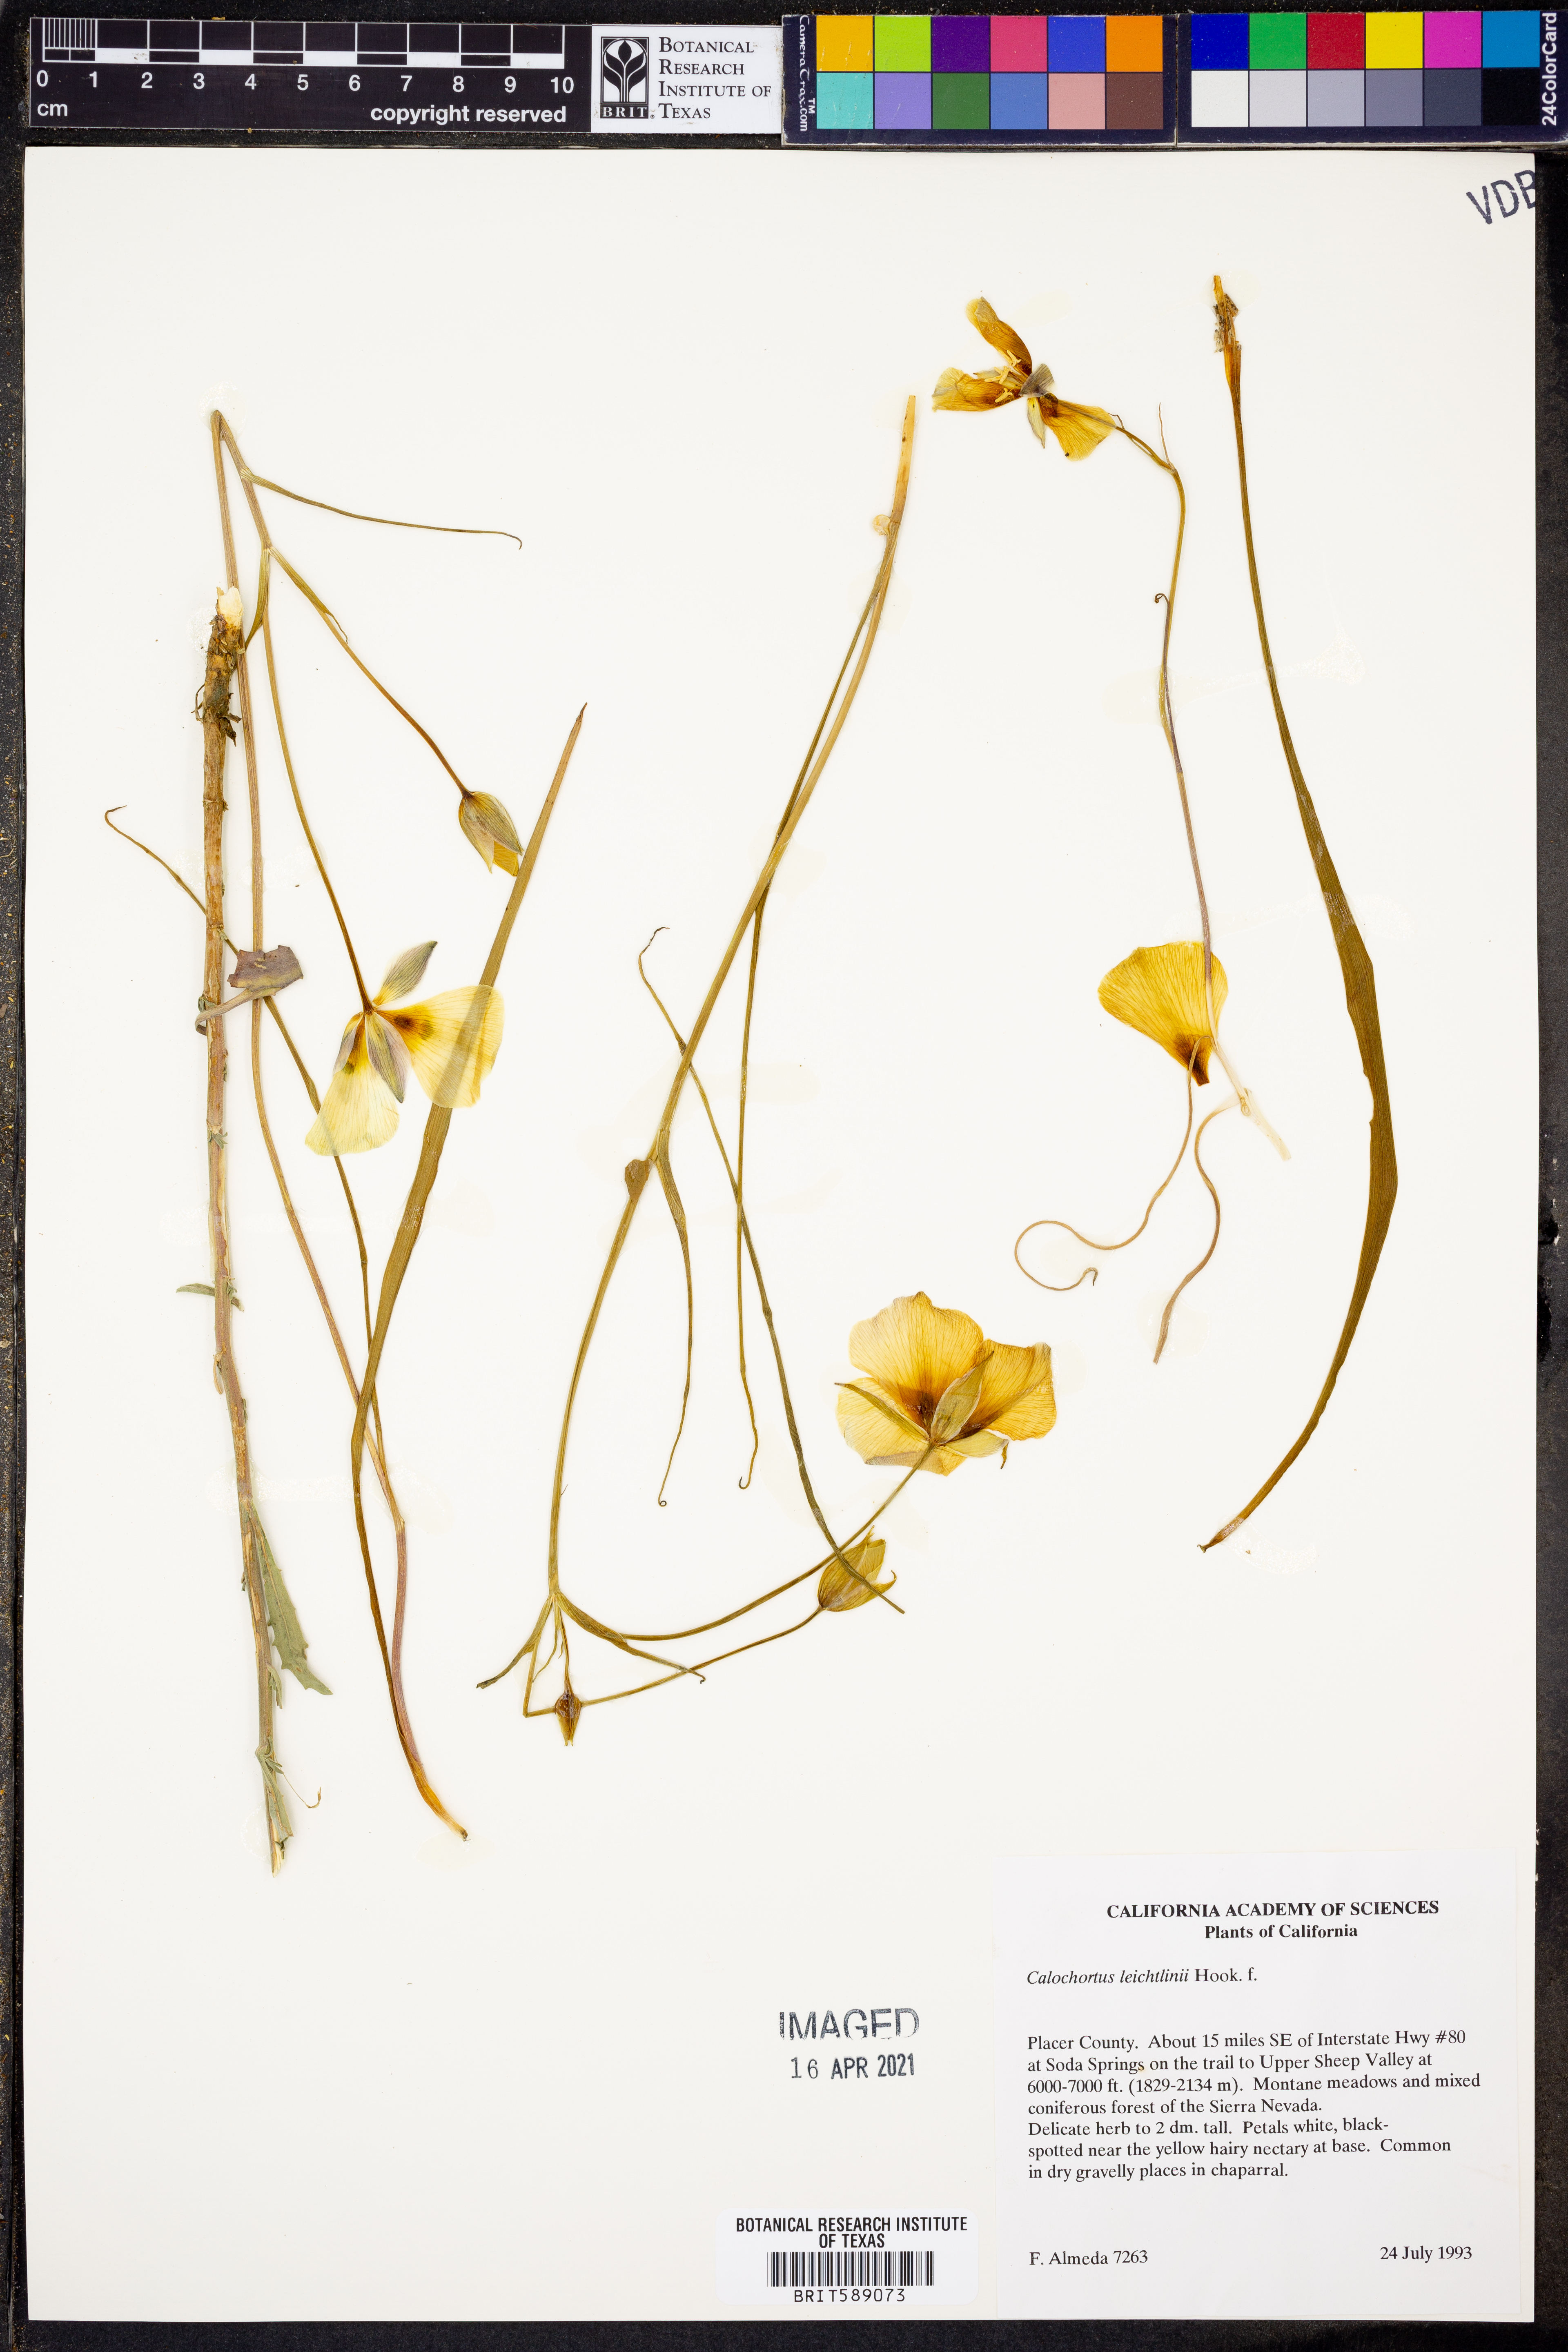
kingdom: Plantae
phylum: Tracheophyta
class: Liliopsida
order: Liliales
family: Liliaceae
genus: Calochortus
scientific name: Calochortus leichtlinii
